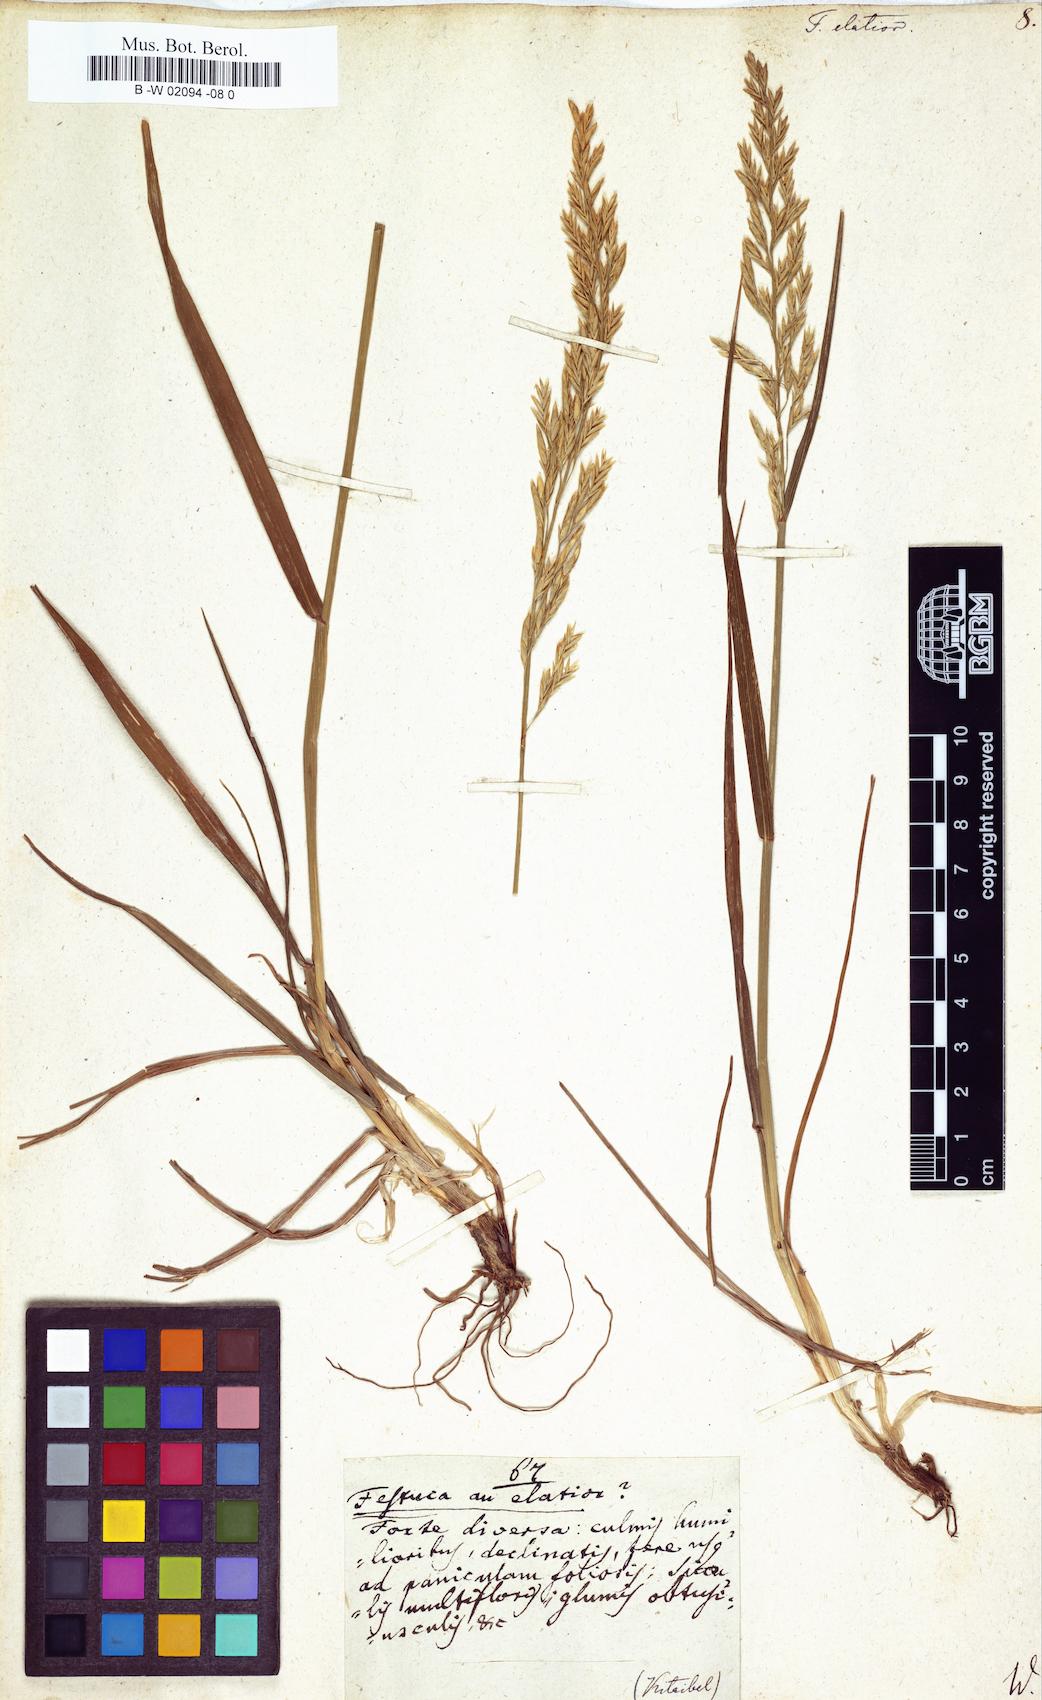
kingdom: Plantae
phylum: Tracheophyta
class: Liliopsida
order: Poales
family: Poaceae
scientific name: Poaceae
